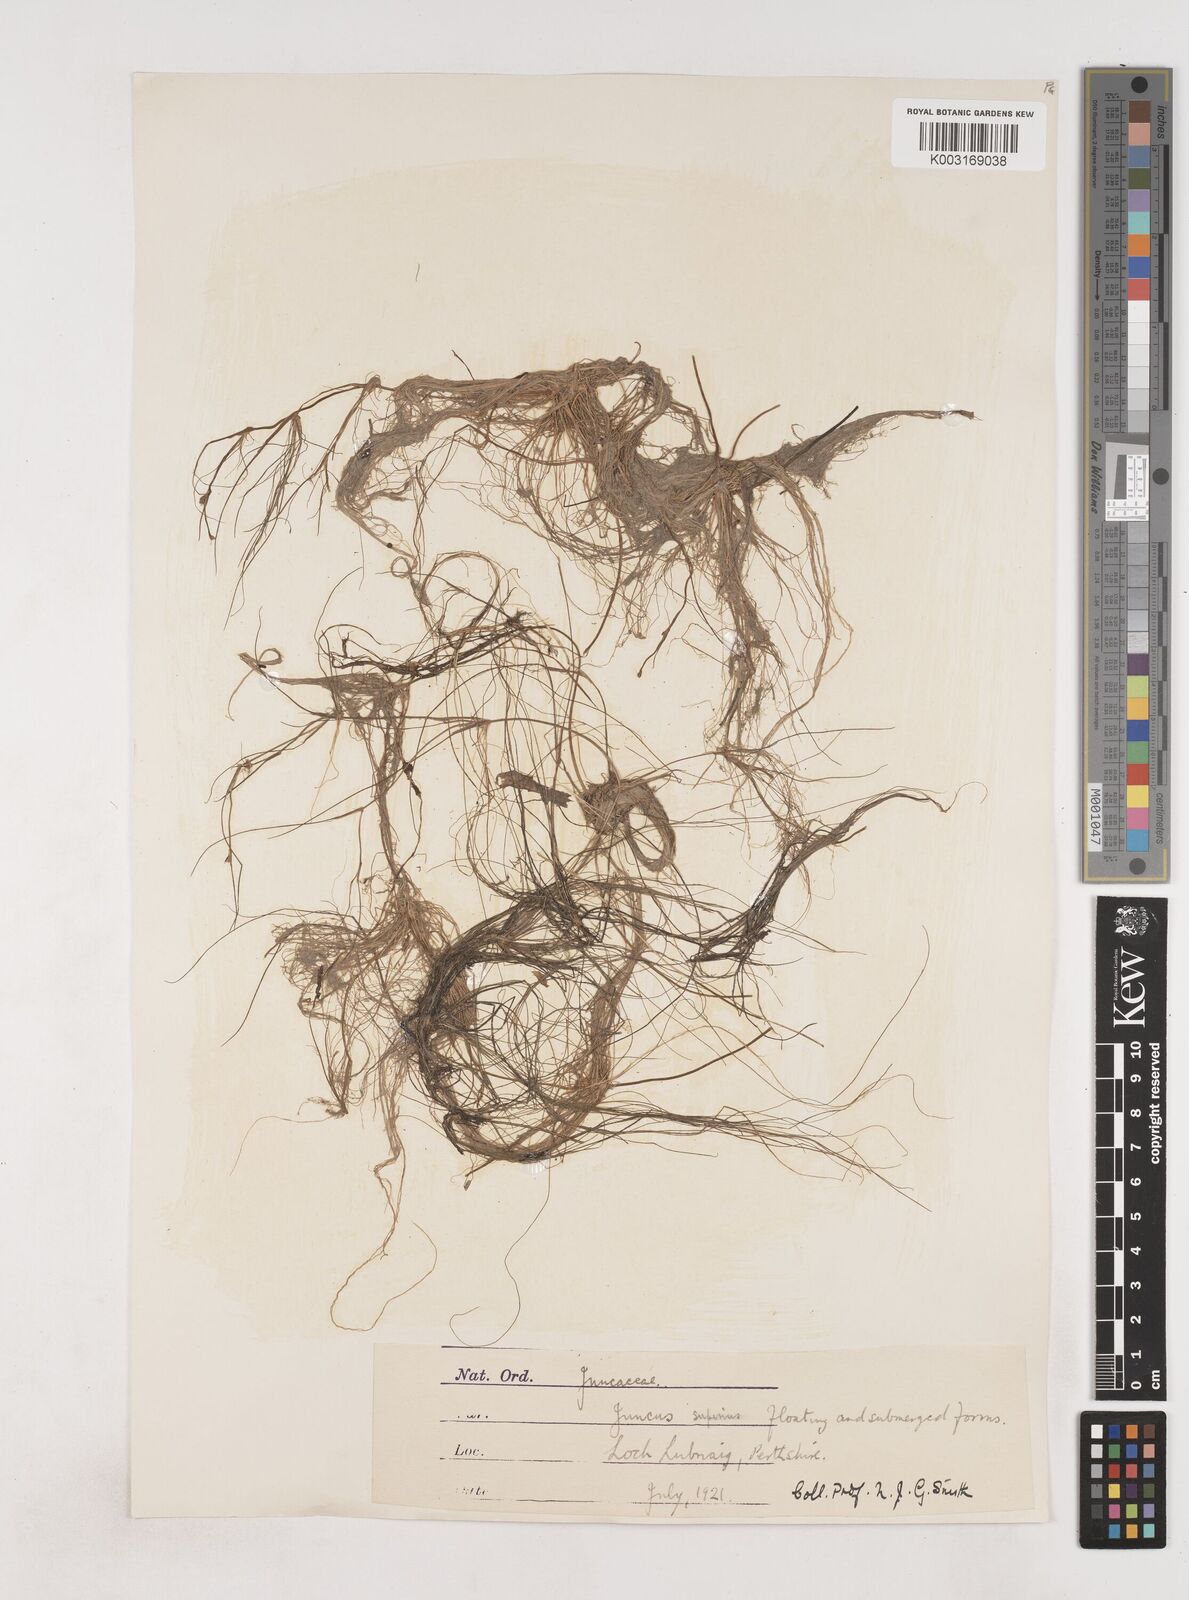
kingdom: Plantae
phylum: Tracheophyta
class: Liliopsida
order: Poales
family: Juncaceae
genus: Juncus
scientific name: Juncus bulbosus
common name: Bulbous rush
